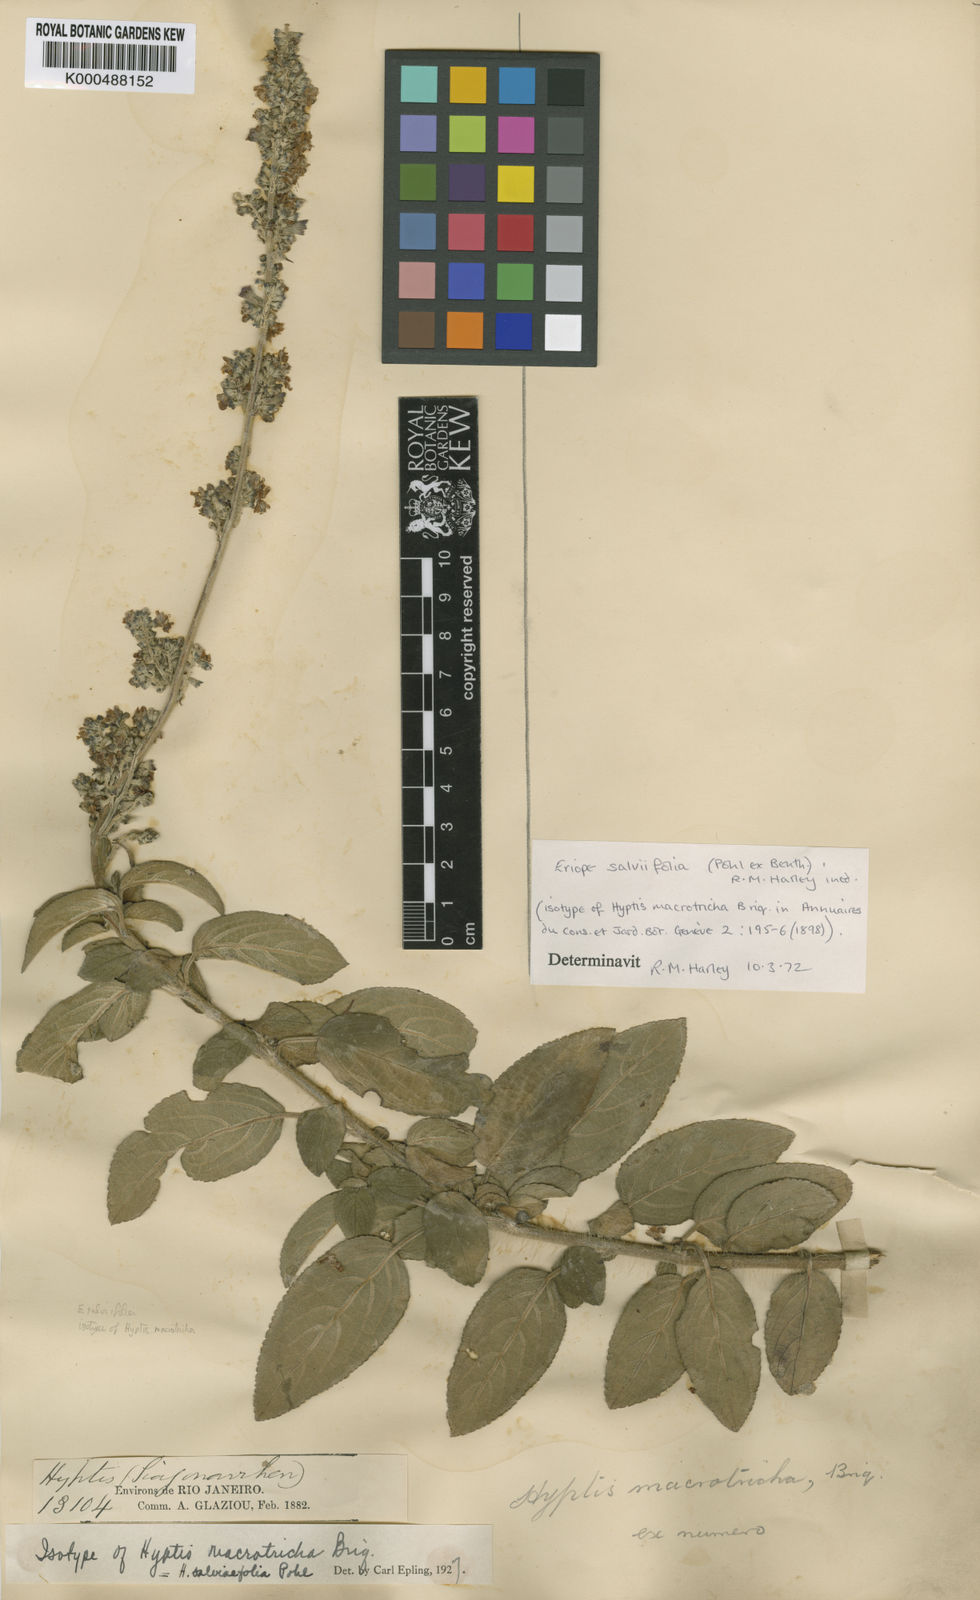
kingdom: Plantae
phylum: Tracheophyta
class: Magnoliopsida
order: Lamiales
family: Lamiaceae
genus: Eriope
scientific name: Eriope salviifolia
